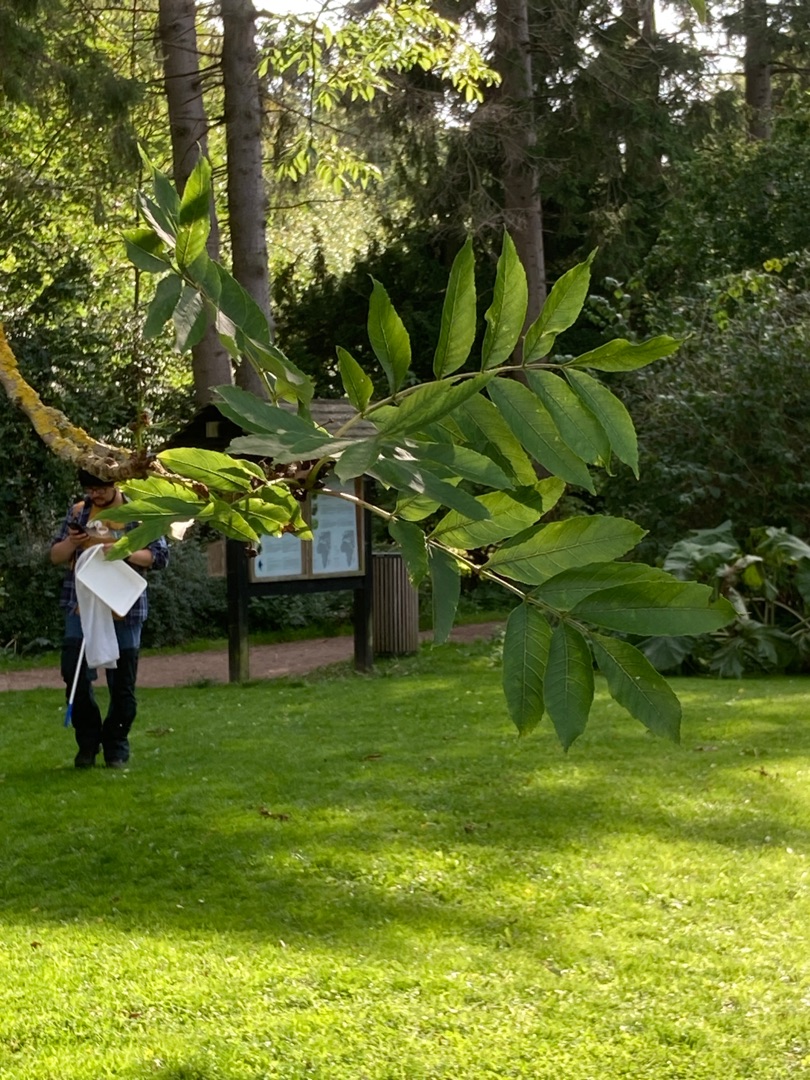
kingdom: Plantae
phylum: Tracheophyta
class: Magnoliopsida
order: Lamiales
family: Oleaceae
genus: Fraxinus
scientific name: Fraxinus excelsior
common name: Ask
